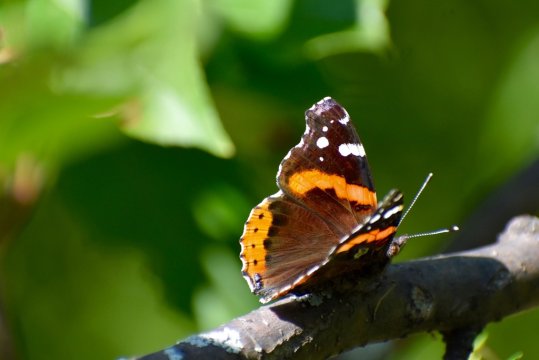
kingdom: Animalia
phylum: Arthropoda
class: Insecta
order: Lepidoptera
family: Nymphalidae
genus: Vanessa
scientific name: Vanessa atalanta
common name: Red Admiral
